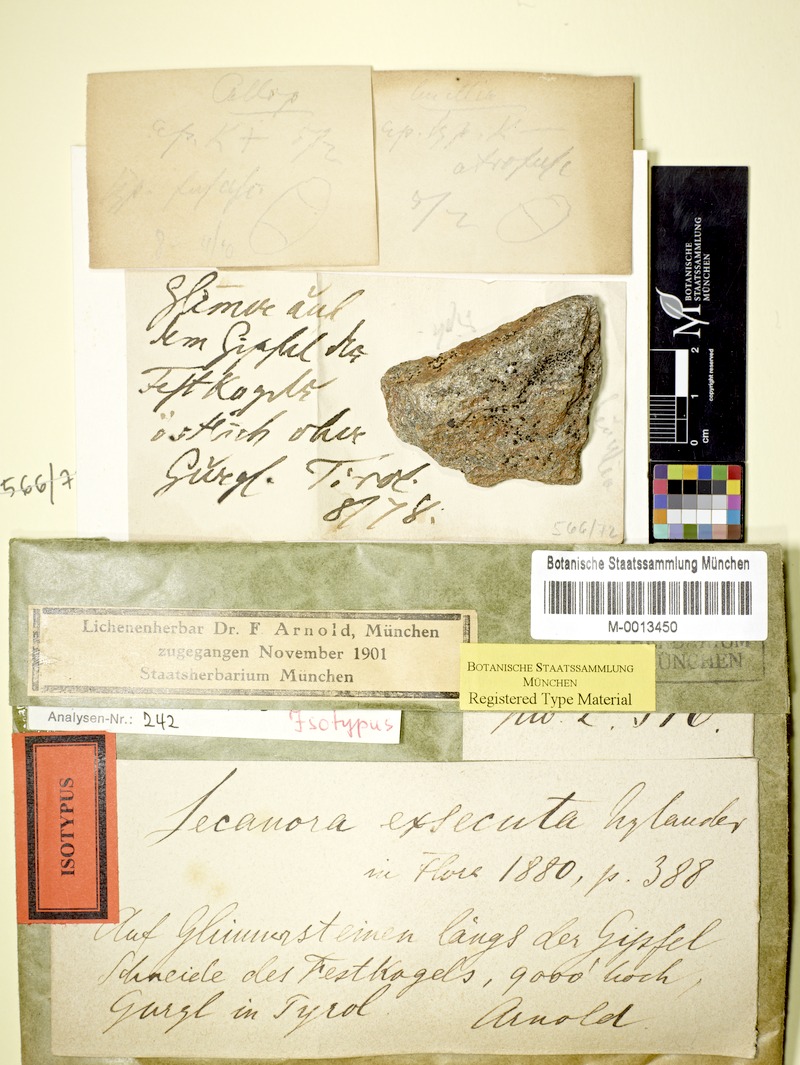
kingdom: Fungi
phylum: Ascomycota
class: Lecanoromycetes
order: Teloschistales
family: Teloschistaceae
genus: Lendemeriella
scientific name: Lendemeriella exsecuta
